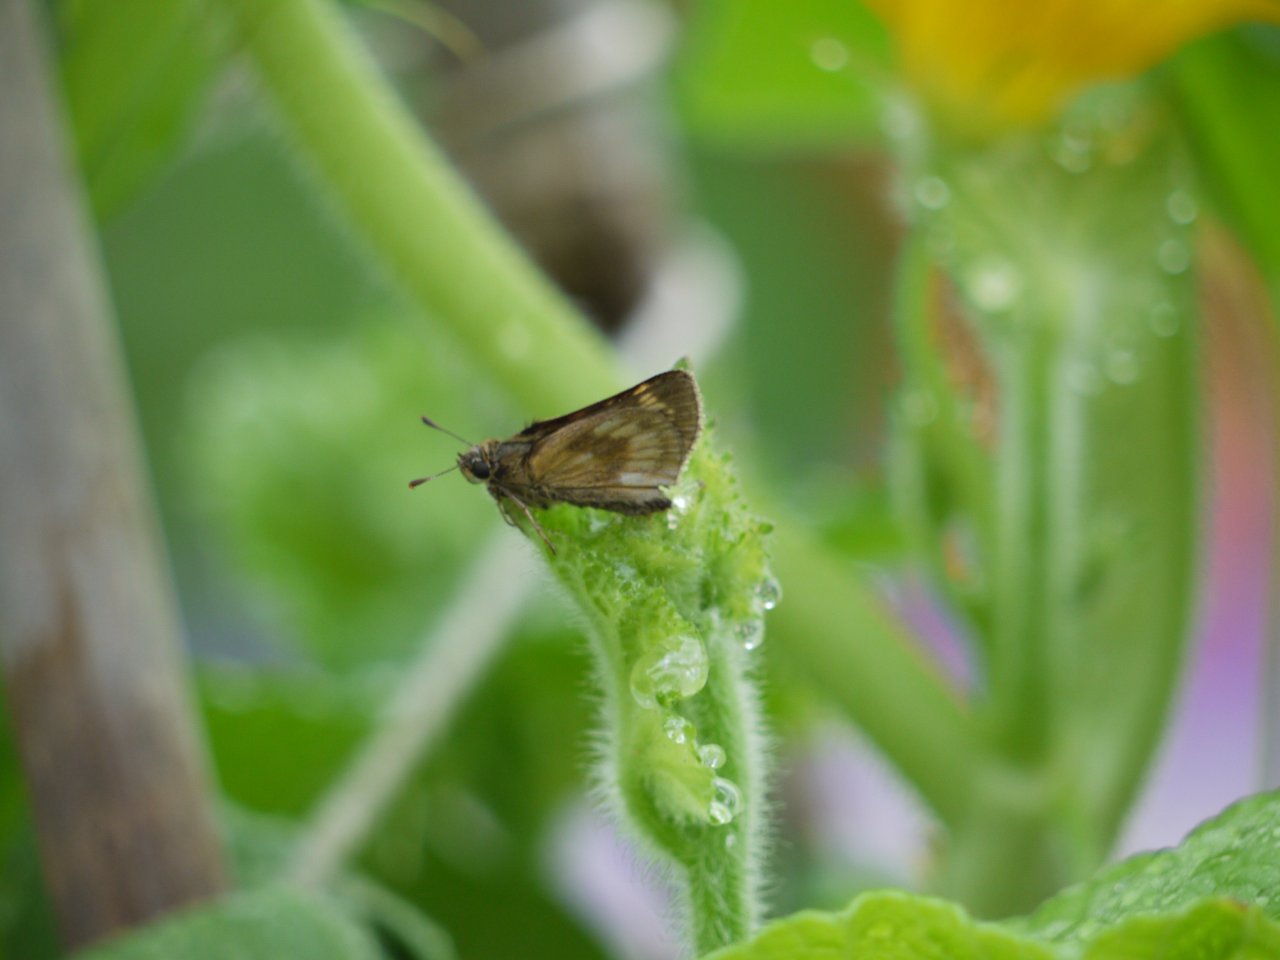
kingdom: Animalia
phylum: Arthropoda
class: Insecta
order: Lepidoptera
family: Hesperiidae
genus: Polites
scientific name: Polites
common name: Long Dash Skipper
